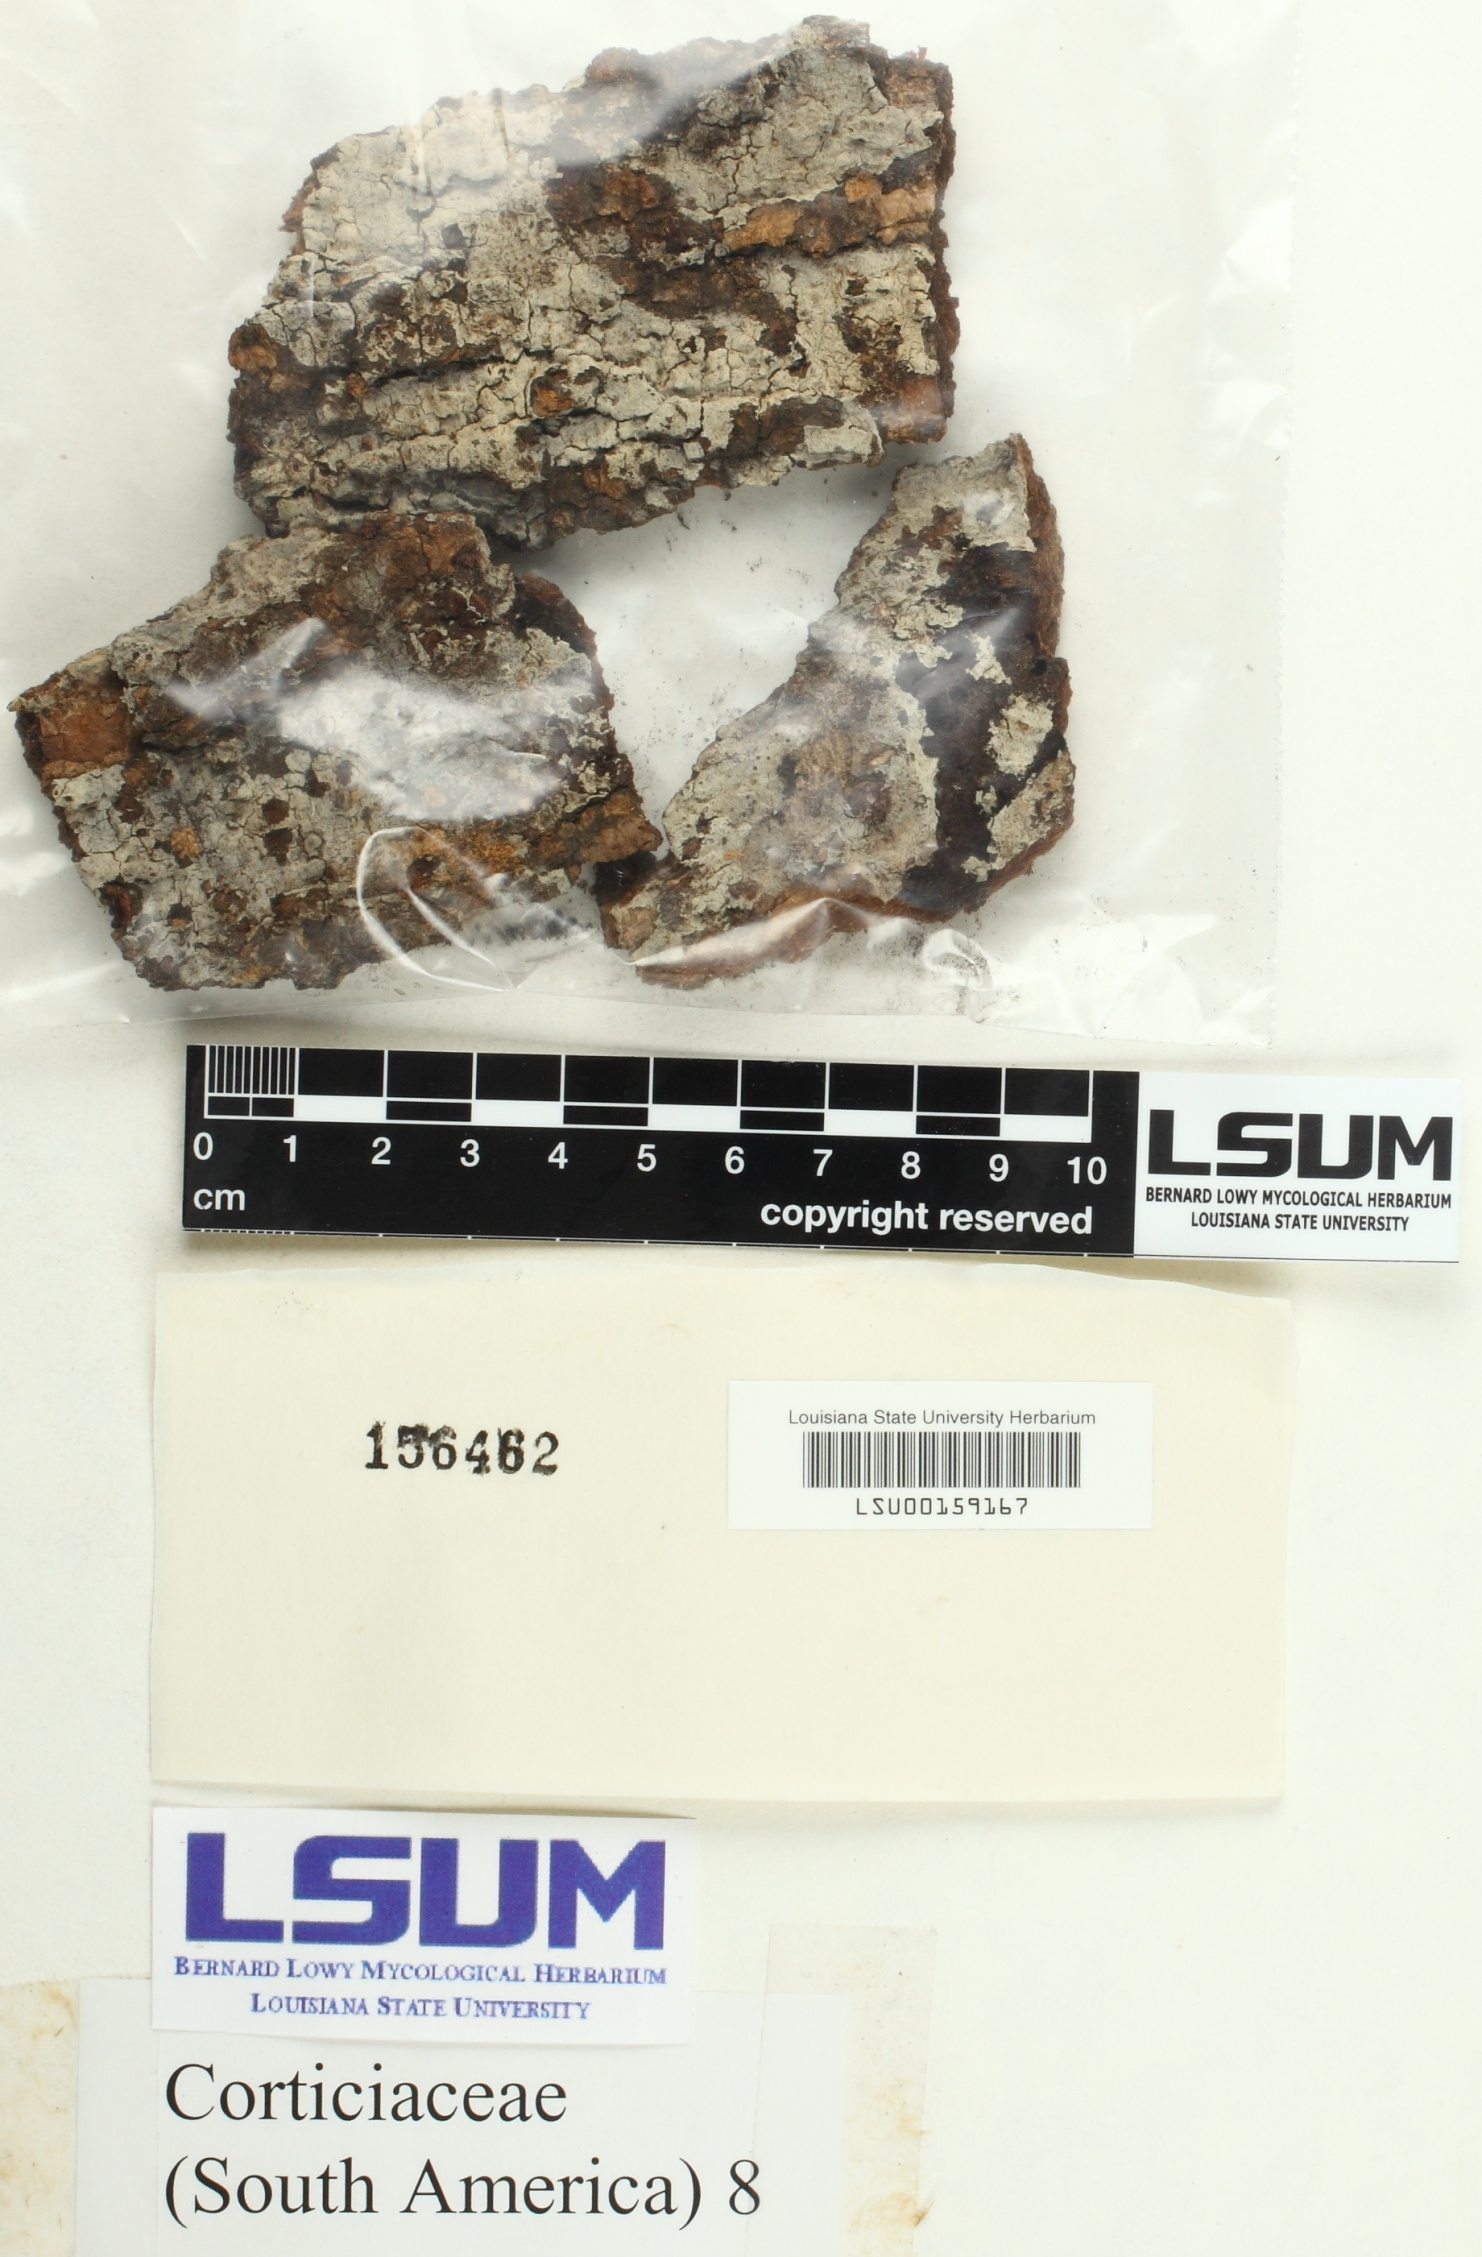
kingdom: Fungi
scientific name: Fungi
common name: Fungi
